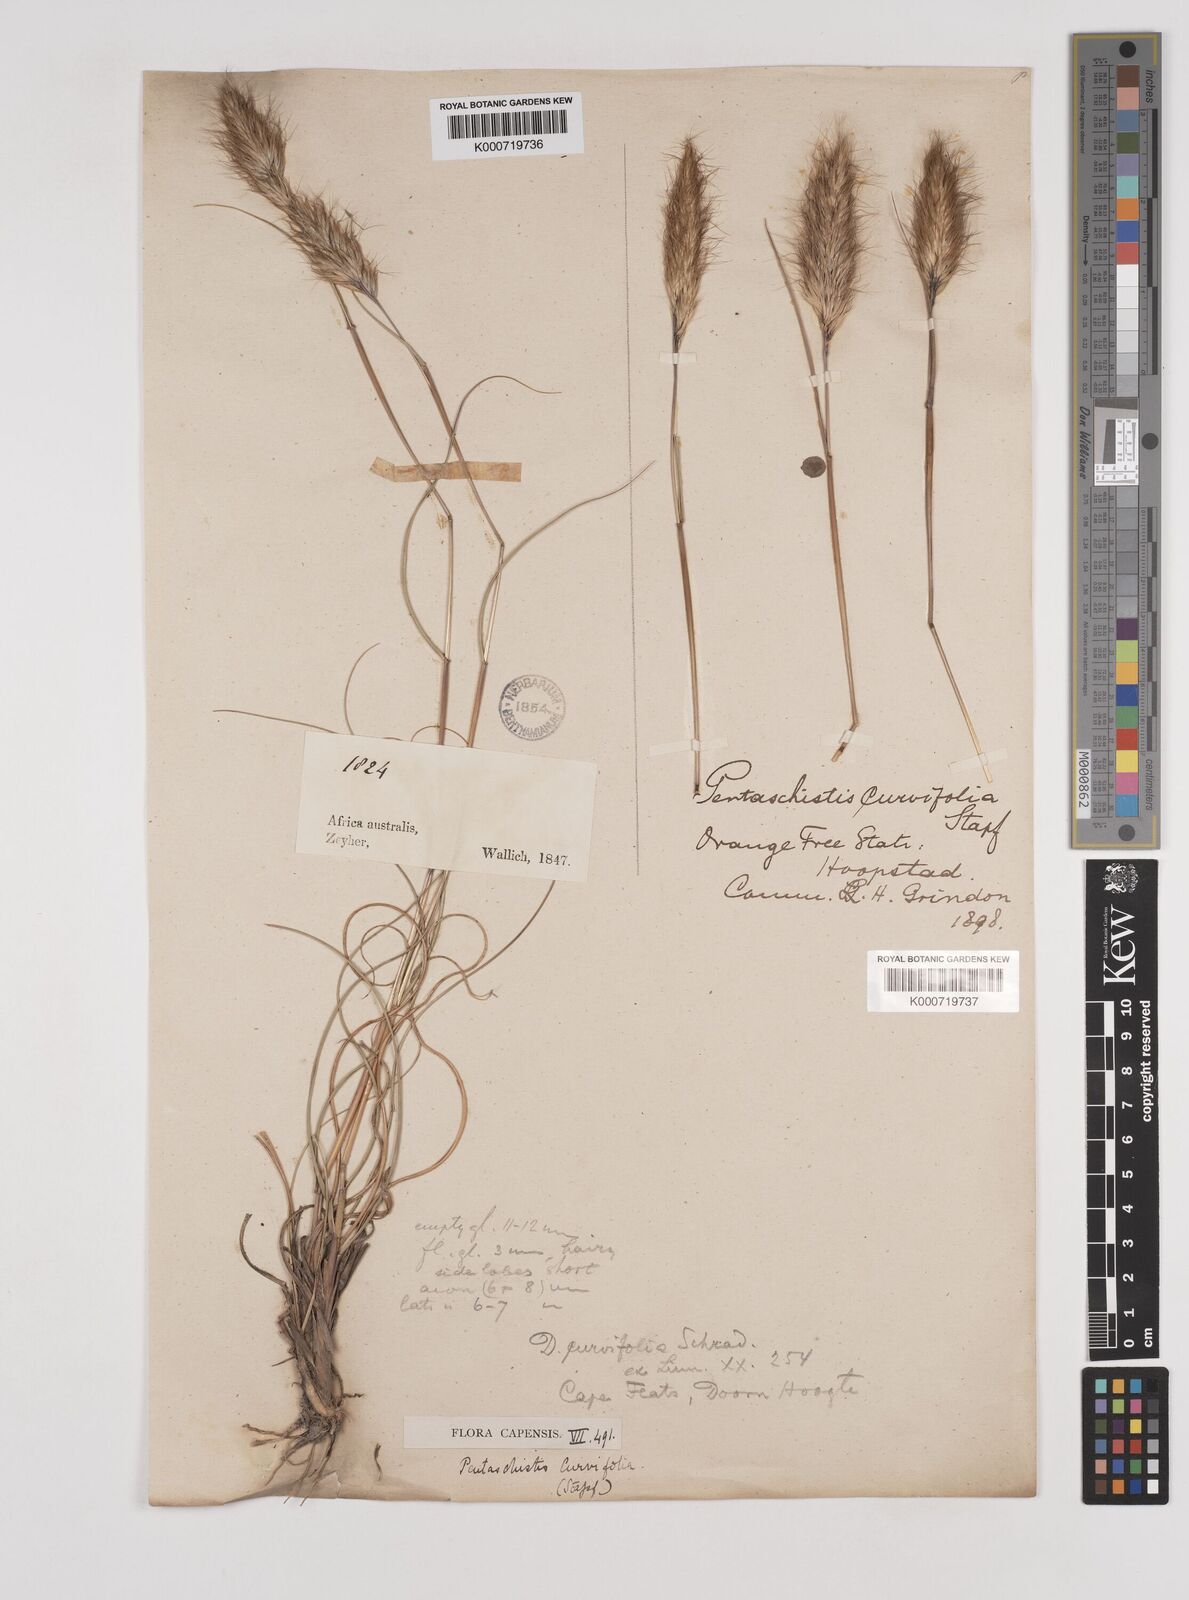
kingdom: Plantae
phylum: Tracheophyta
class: Liliopsida
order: Poales
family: Poaceae
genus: Pentameris
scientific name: Pentameris curvifolia
